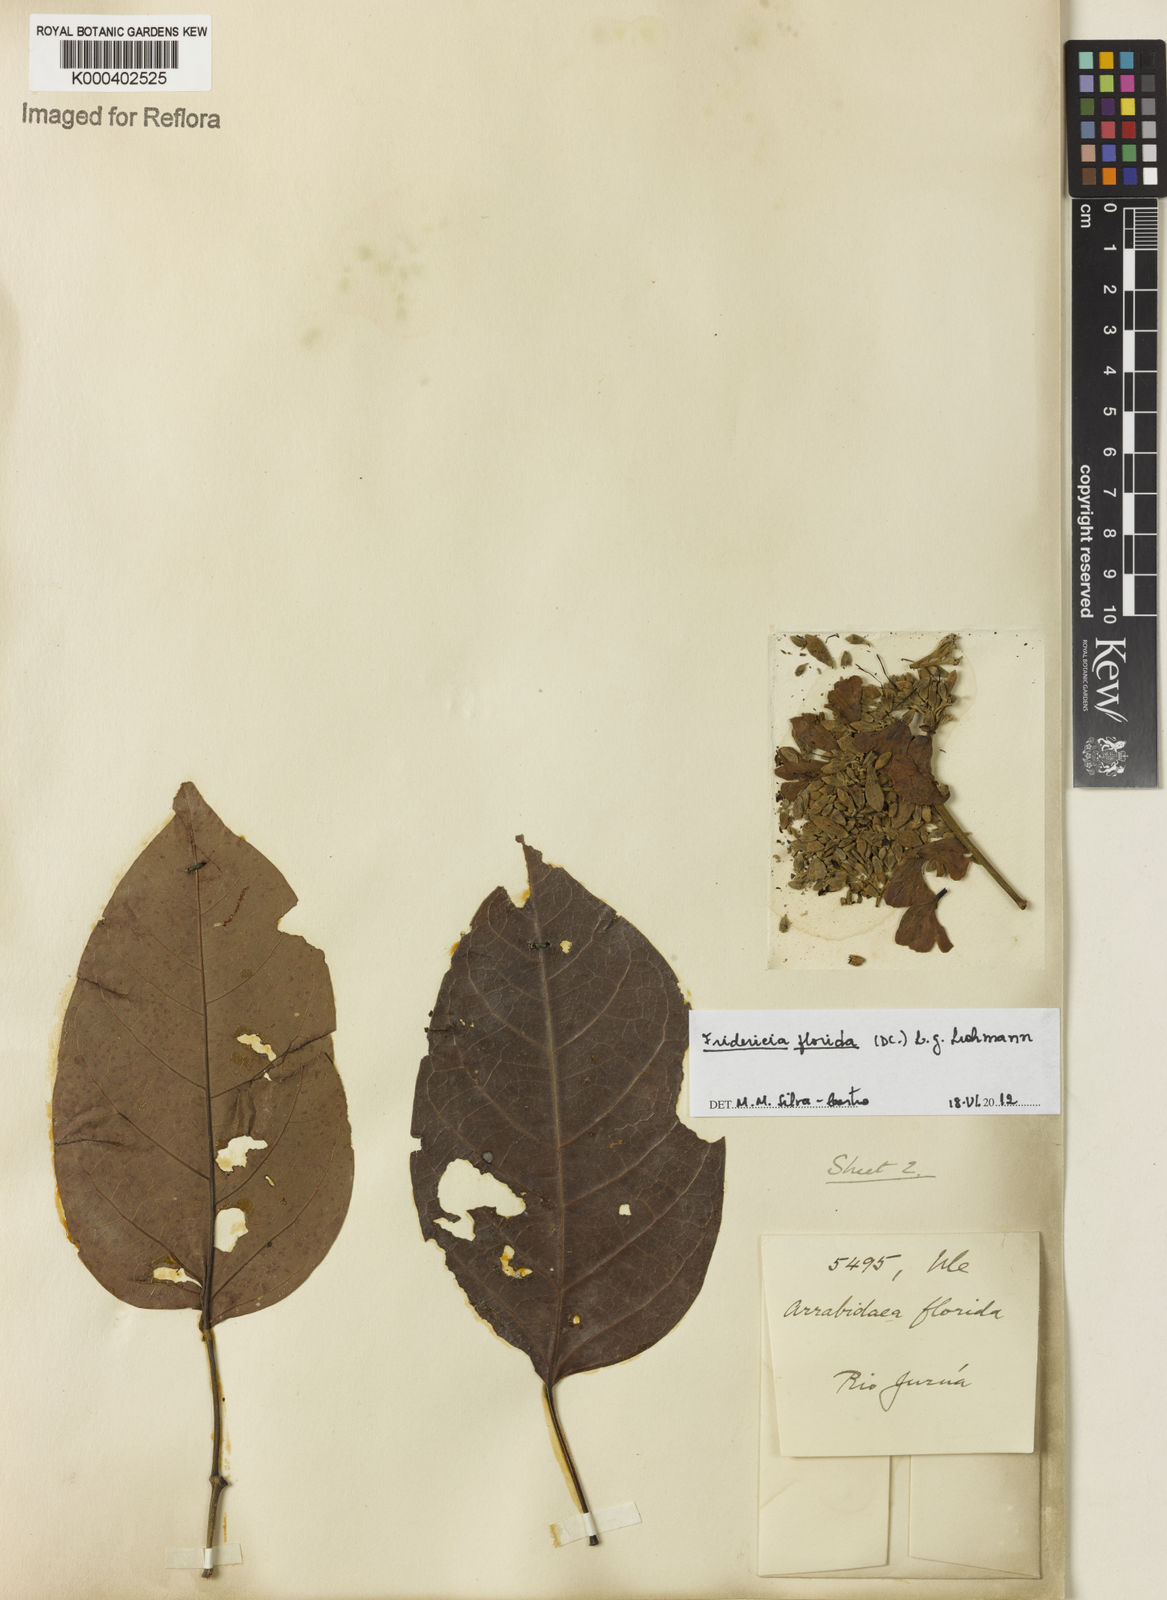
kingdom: Plantae
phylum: Tracheophyta
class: Magnoliopsida
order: Lamiales
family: Bignoniaceae
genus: Fridericia
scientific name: Fridericia florida
